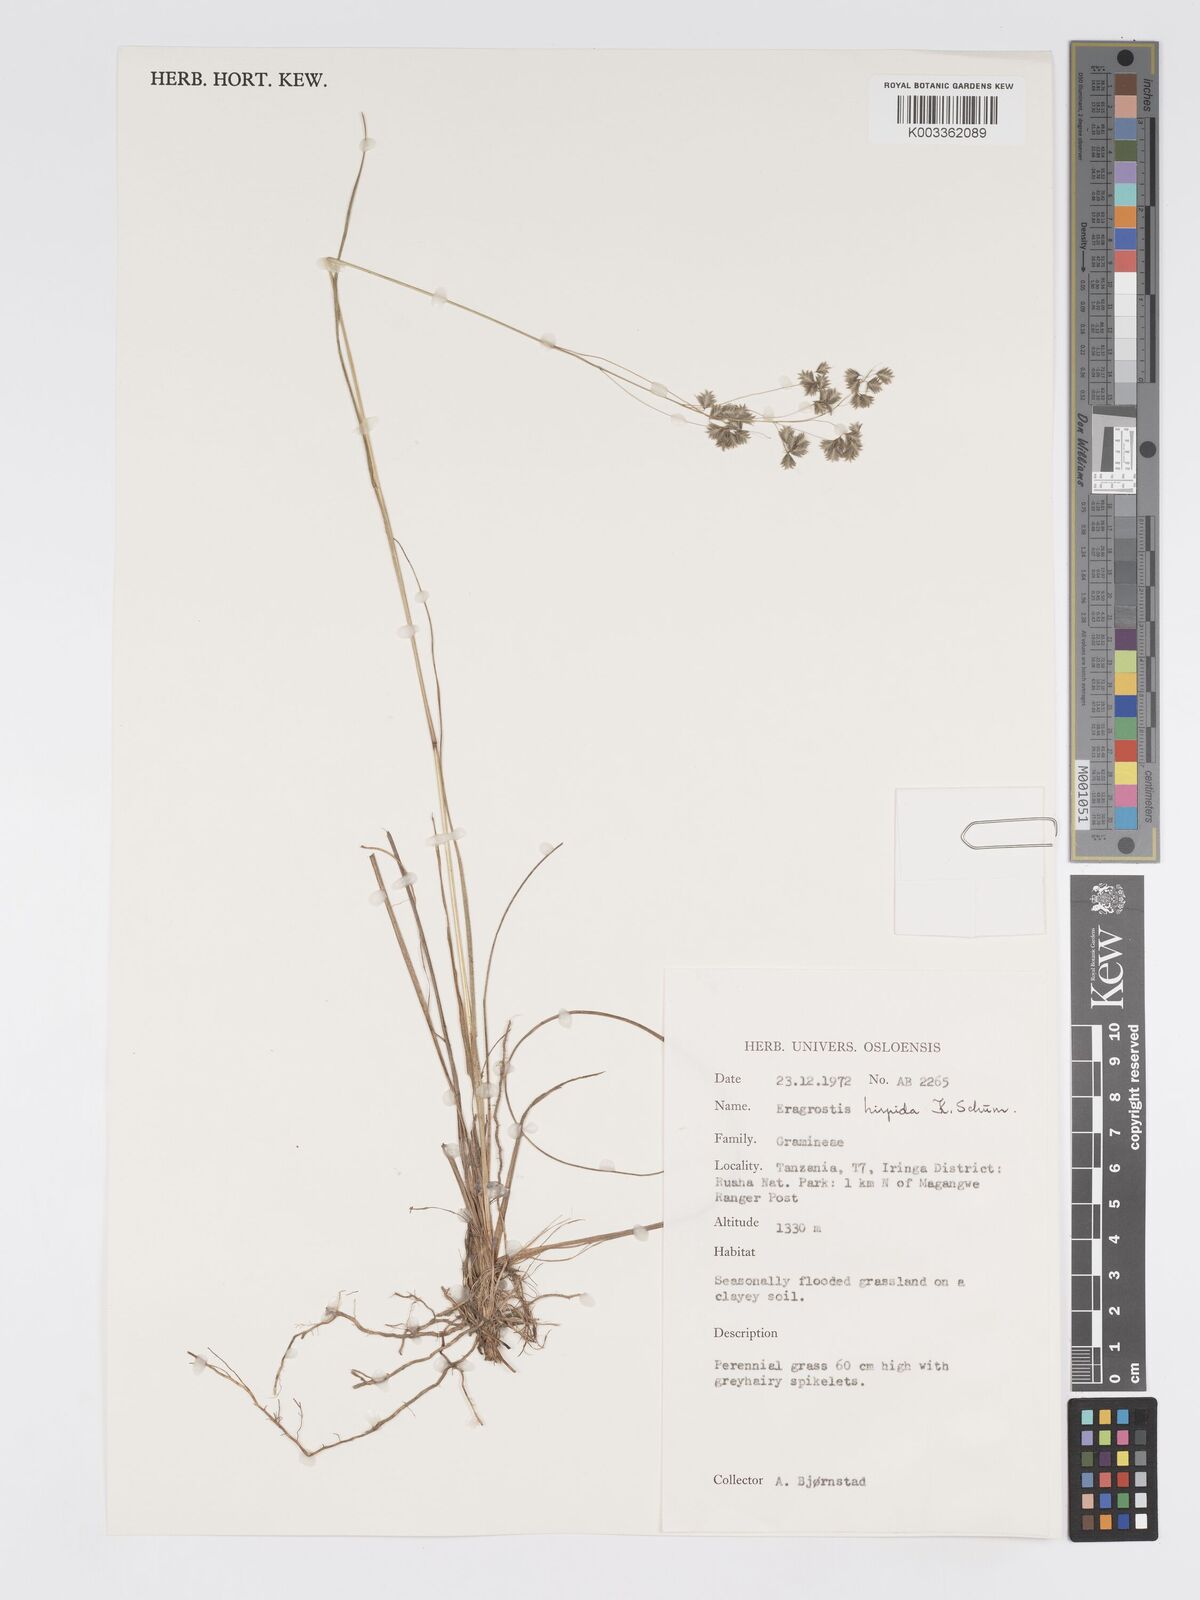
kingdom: Plantae
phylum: Tracheophyta
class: Liliopsida
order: Poales
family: Poaceae
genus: Eragrostis
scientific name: Eragrostis hispida
